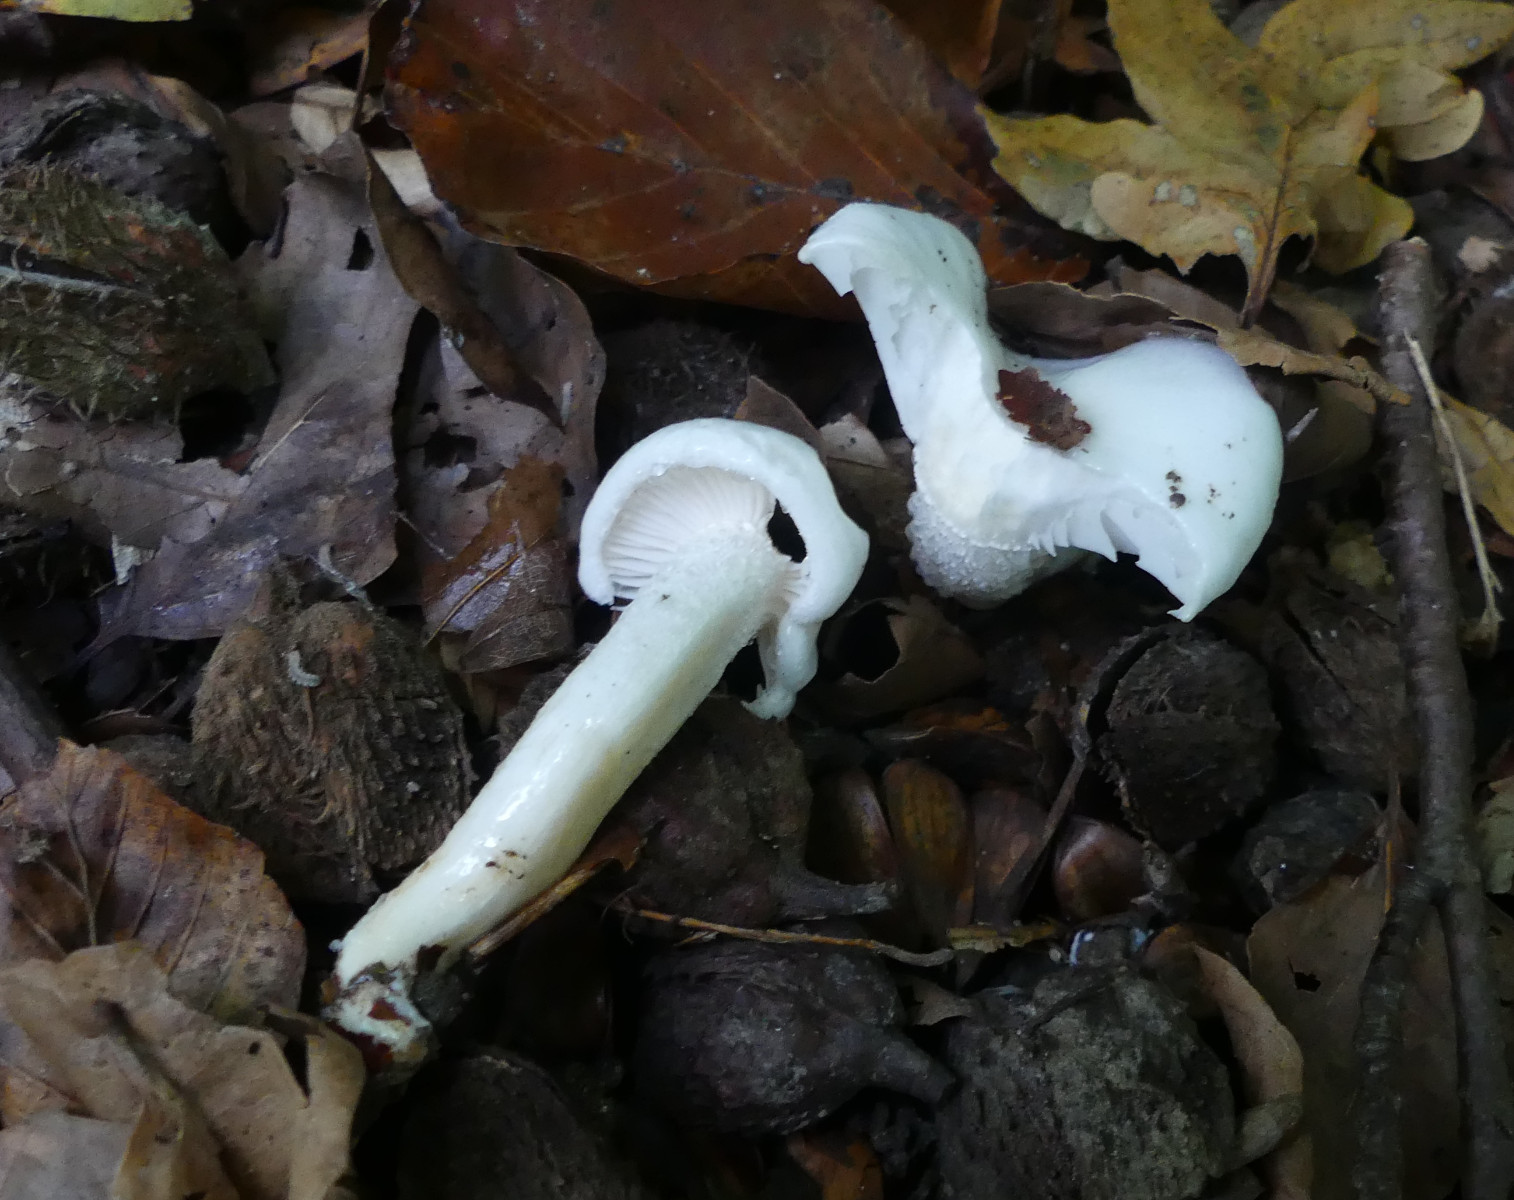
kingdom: Fungi
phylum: Basidiomycota
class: Agaricomycetes
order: Agaricales
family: Hygrophoraceae
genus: Hygrophorus
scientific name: Hygrophorus eburneus
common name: elfenbens-sneglehat
